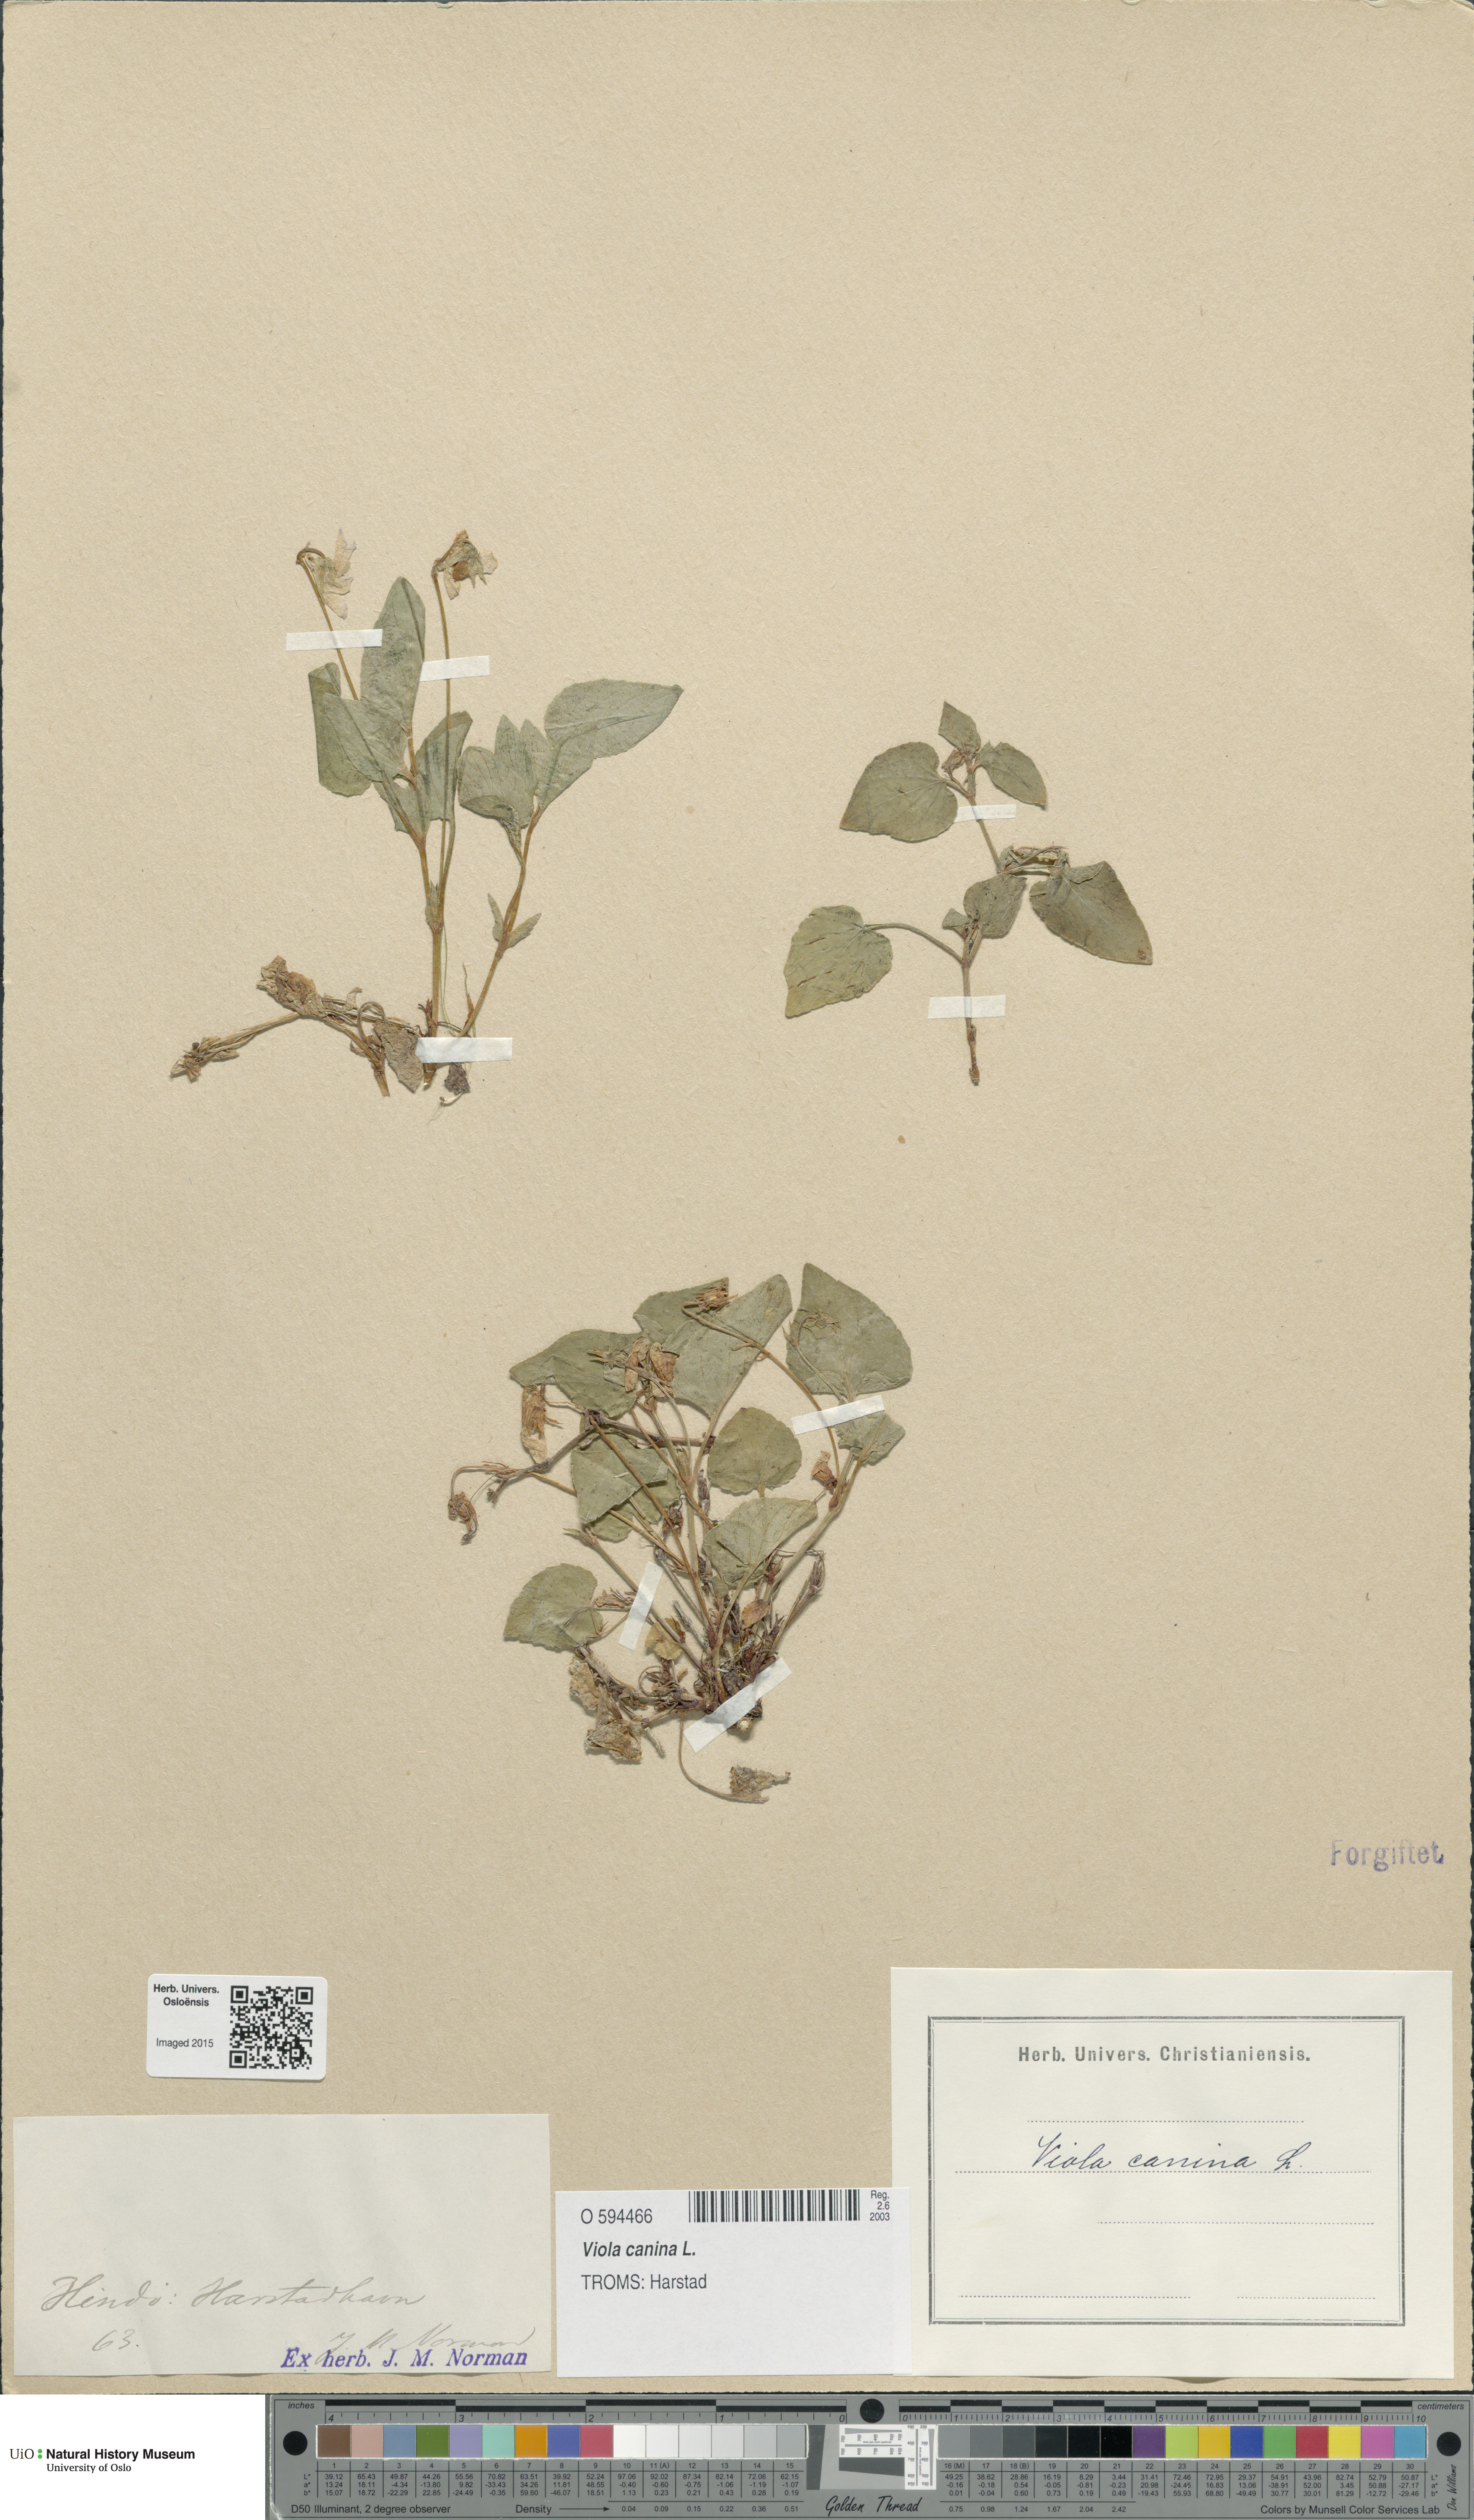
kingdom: Plantae
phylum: Tracheophyta
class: Magnoliopsida
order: Malpighiales
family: Violaceae
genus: Viola
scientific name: Viola canina
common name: Heath dog-violet
